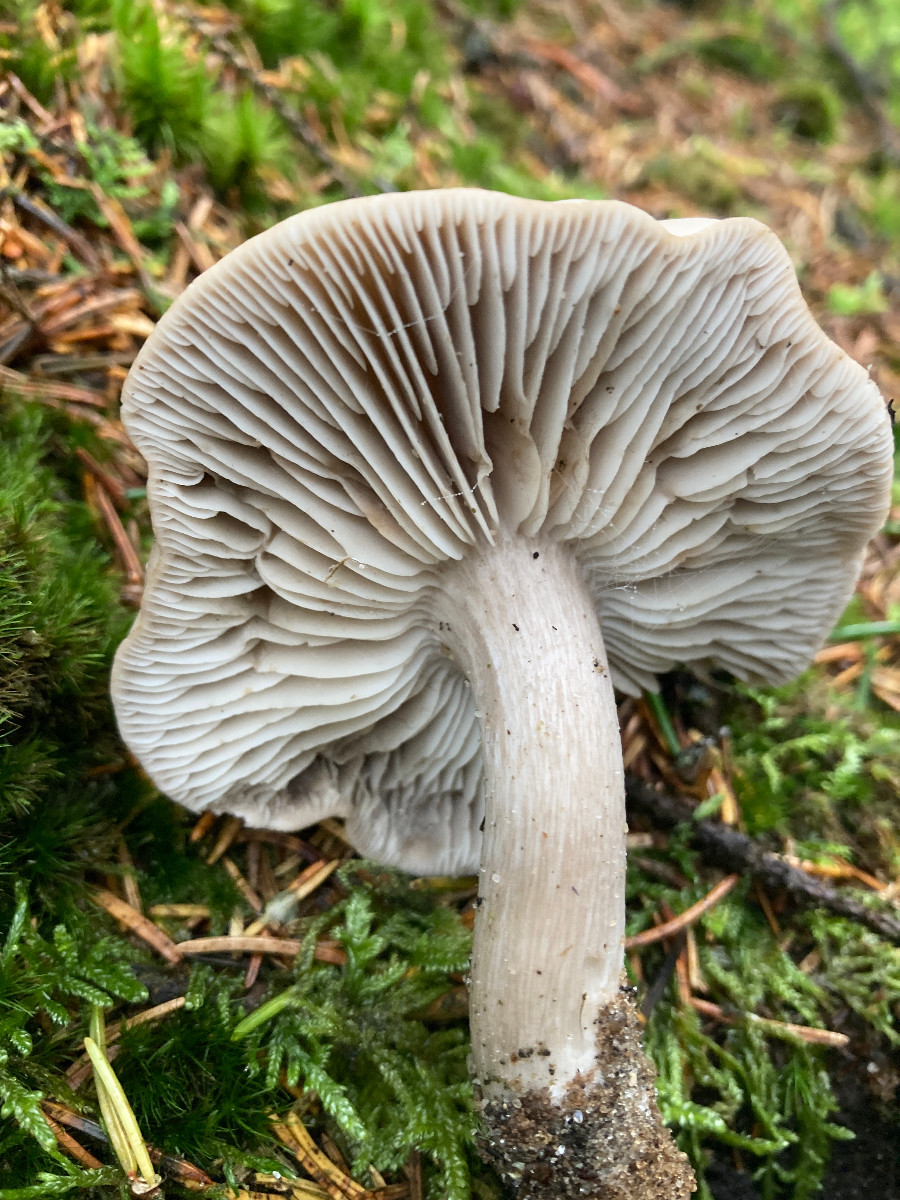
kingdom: Fungi
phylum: Basidiomycota
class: Agaricomycetes
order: Agaricales
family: Tricholomataceae
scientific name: Tricholomataceae
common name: ridderhatfamilien
